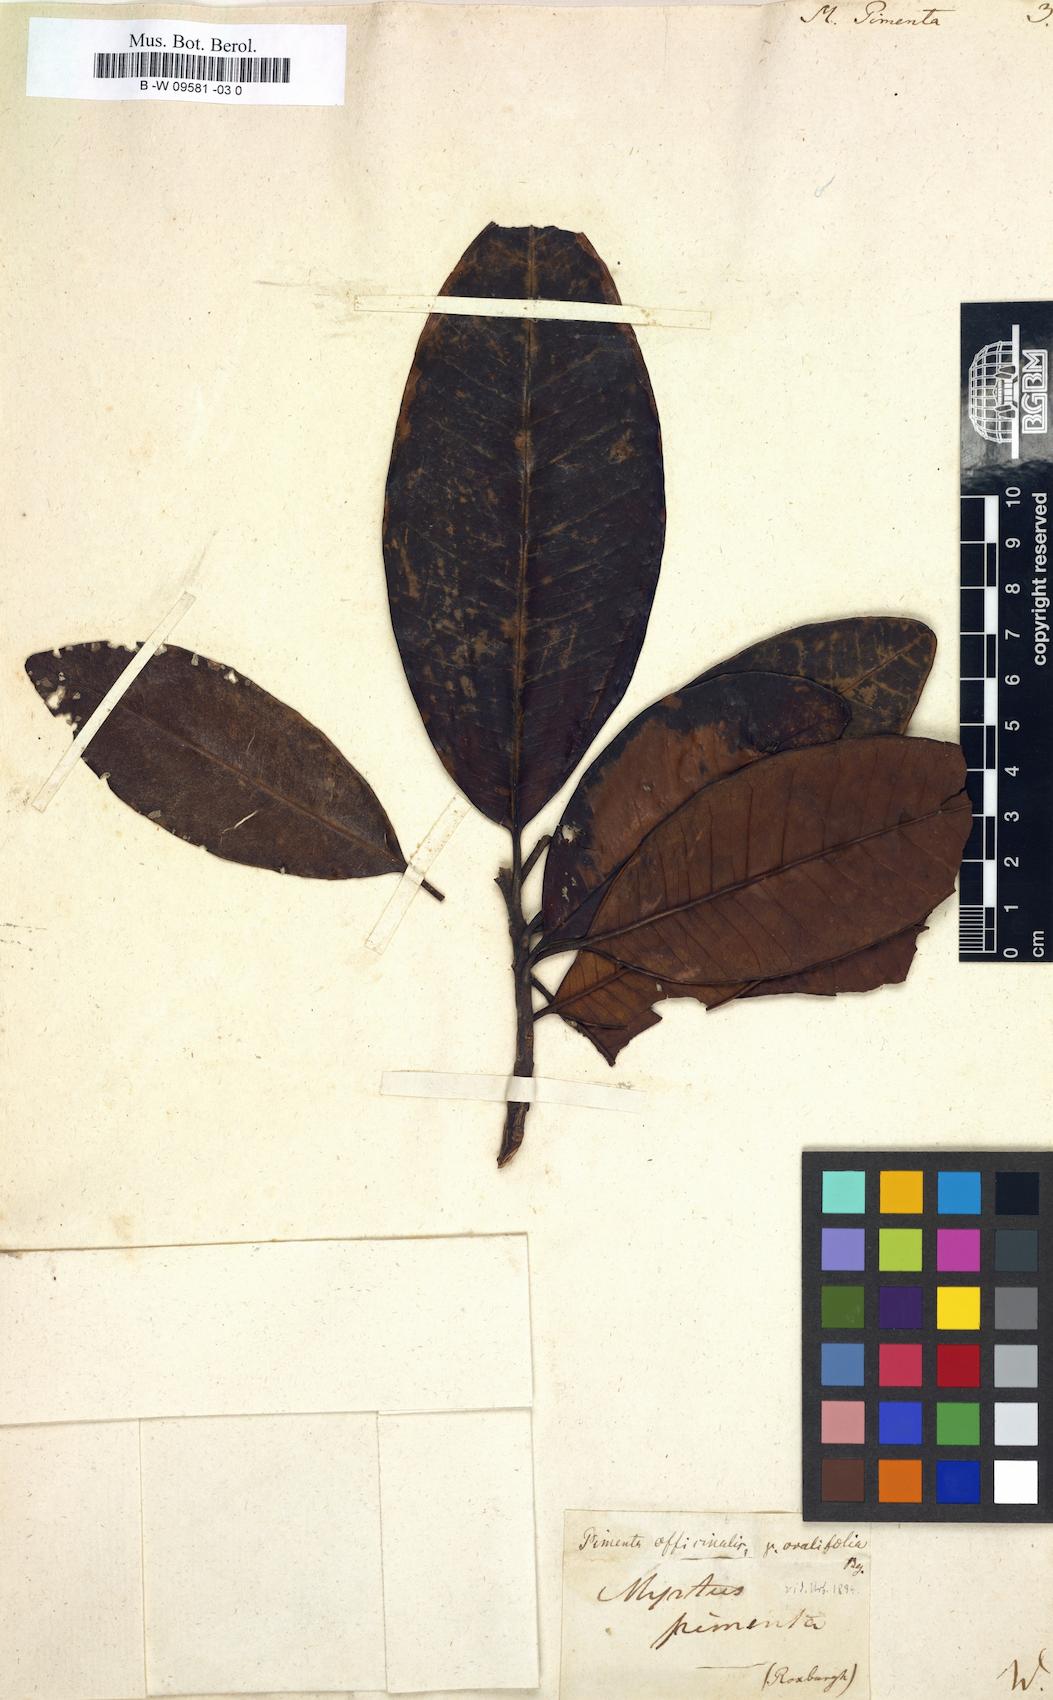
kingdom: Plantae
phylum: Tracheophyta
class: Magnoliopsida
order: Myrtales
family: Myrtaceae
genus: Pimenta
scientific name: Pimenta dioica
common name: Allspice
